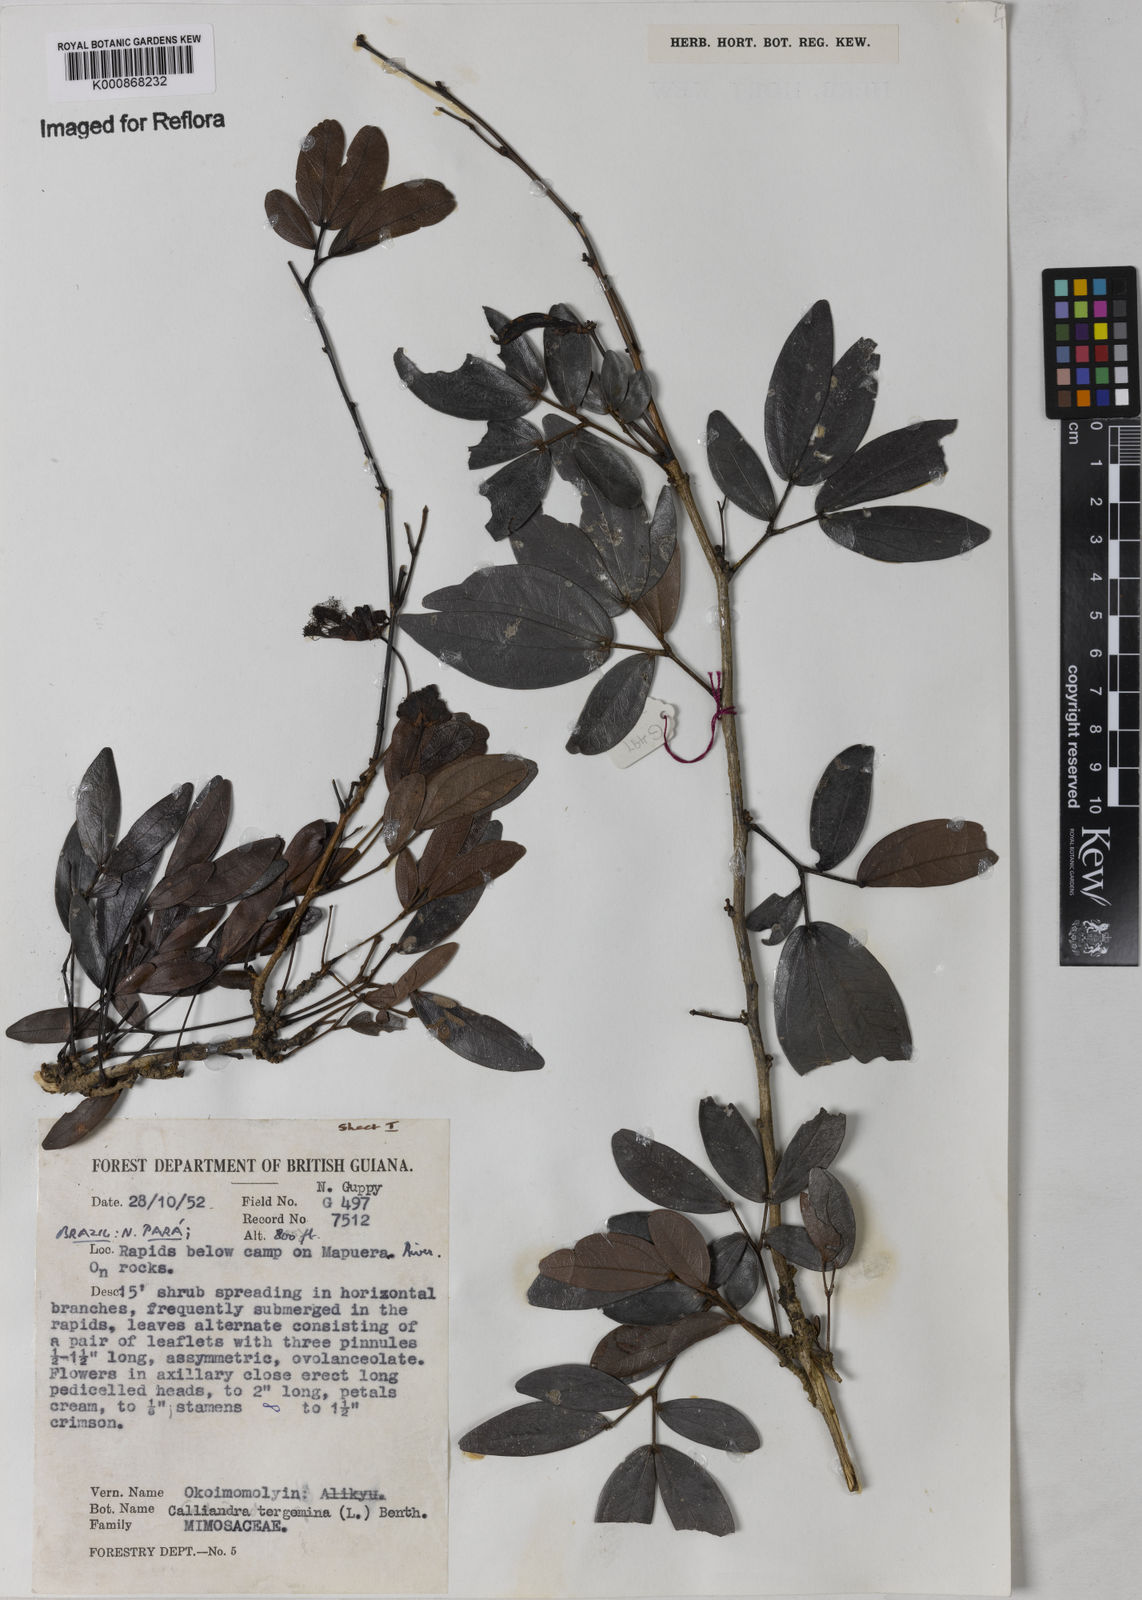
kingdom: Plantae
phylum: Tracheophyta
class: Magnoliopsida
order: Fabales
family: Fabaceae
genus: Calliandra
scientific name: Calliandra tergemina
